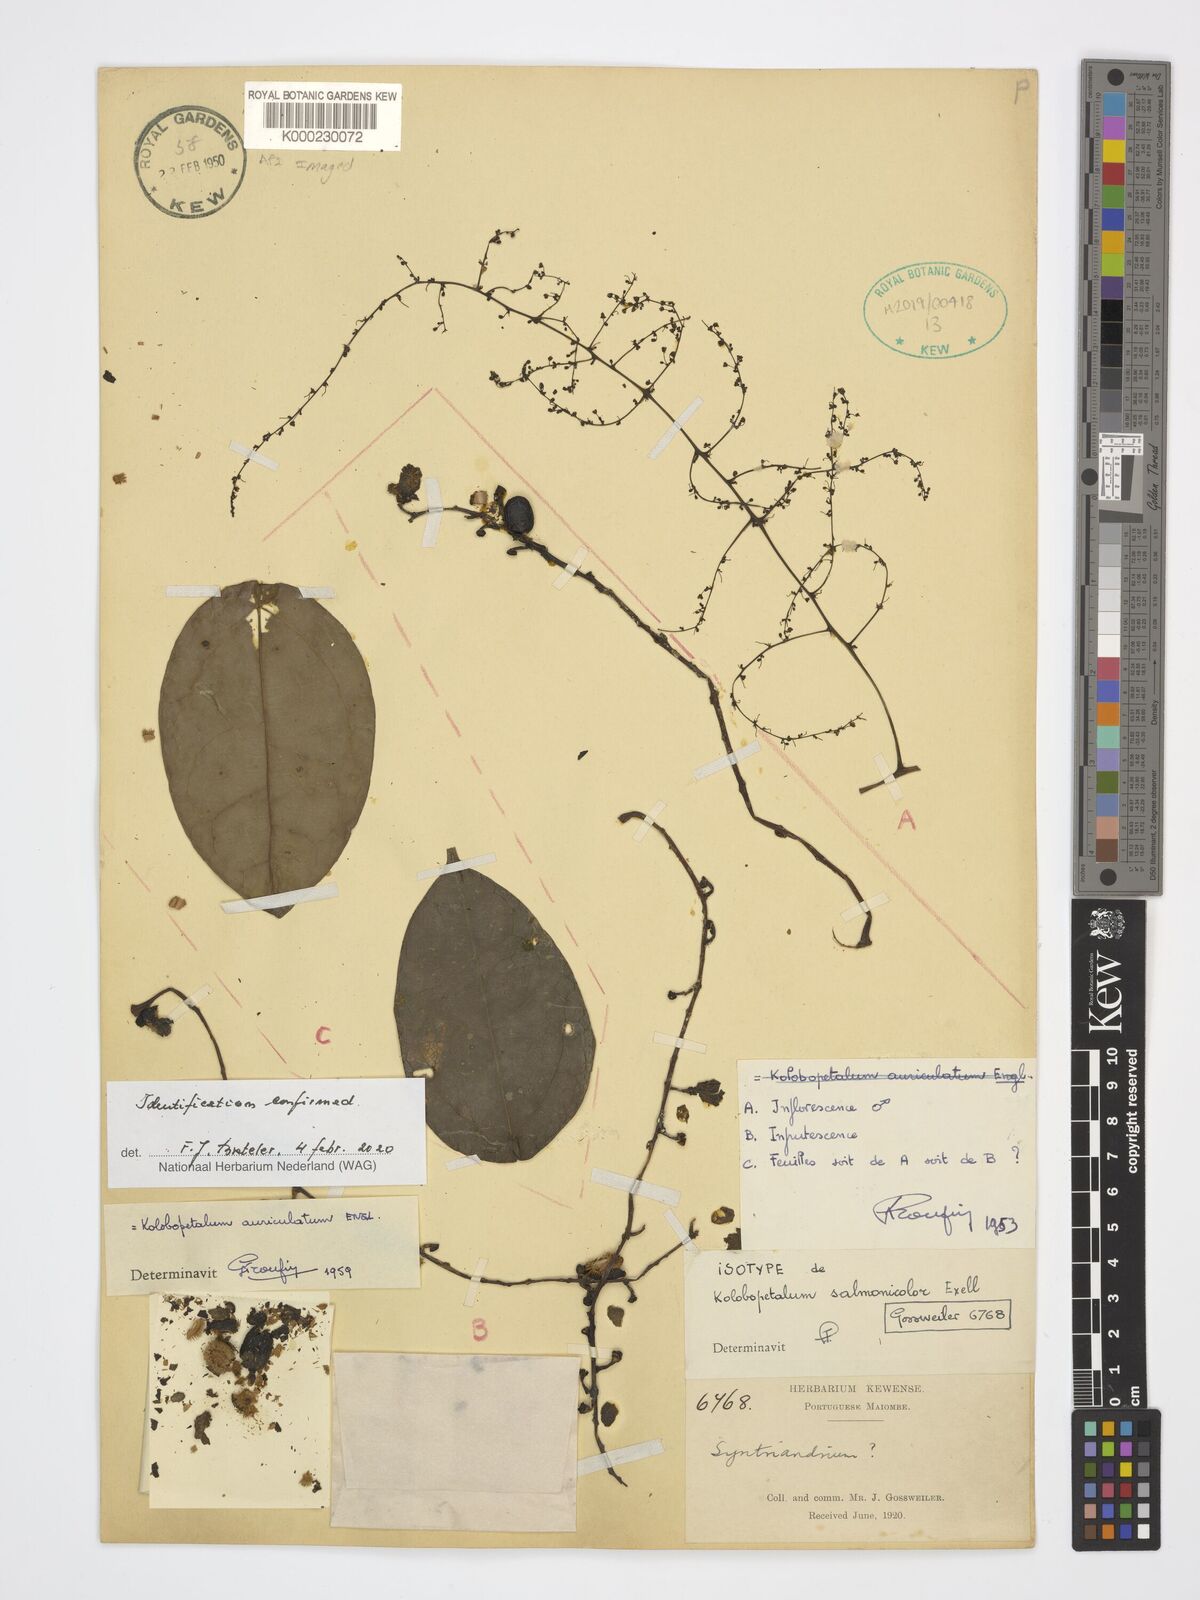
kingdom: Plantae
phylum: Tracheophyta
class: Magnoliopsida
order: Ranunculales
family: Menispermaceae
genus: Syntriandrium
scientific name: Syntriandrium
